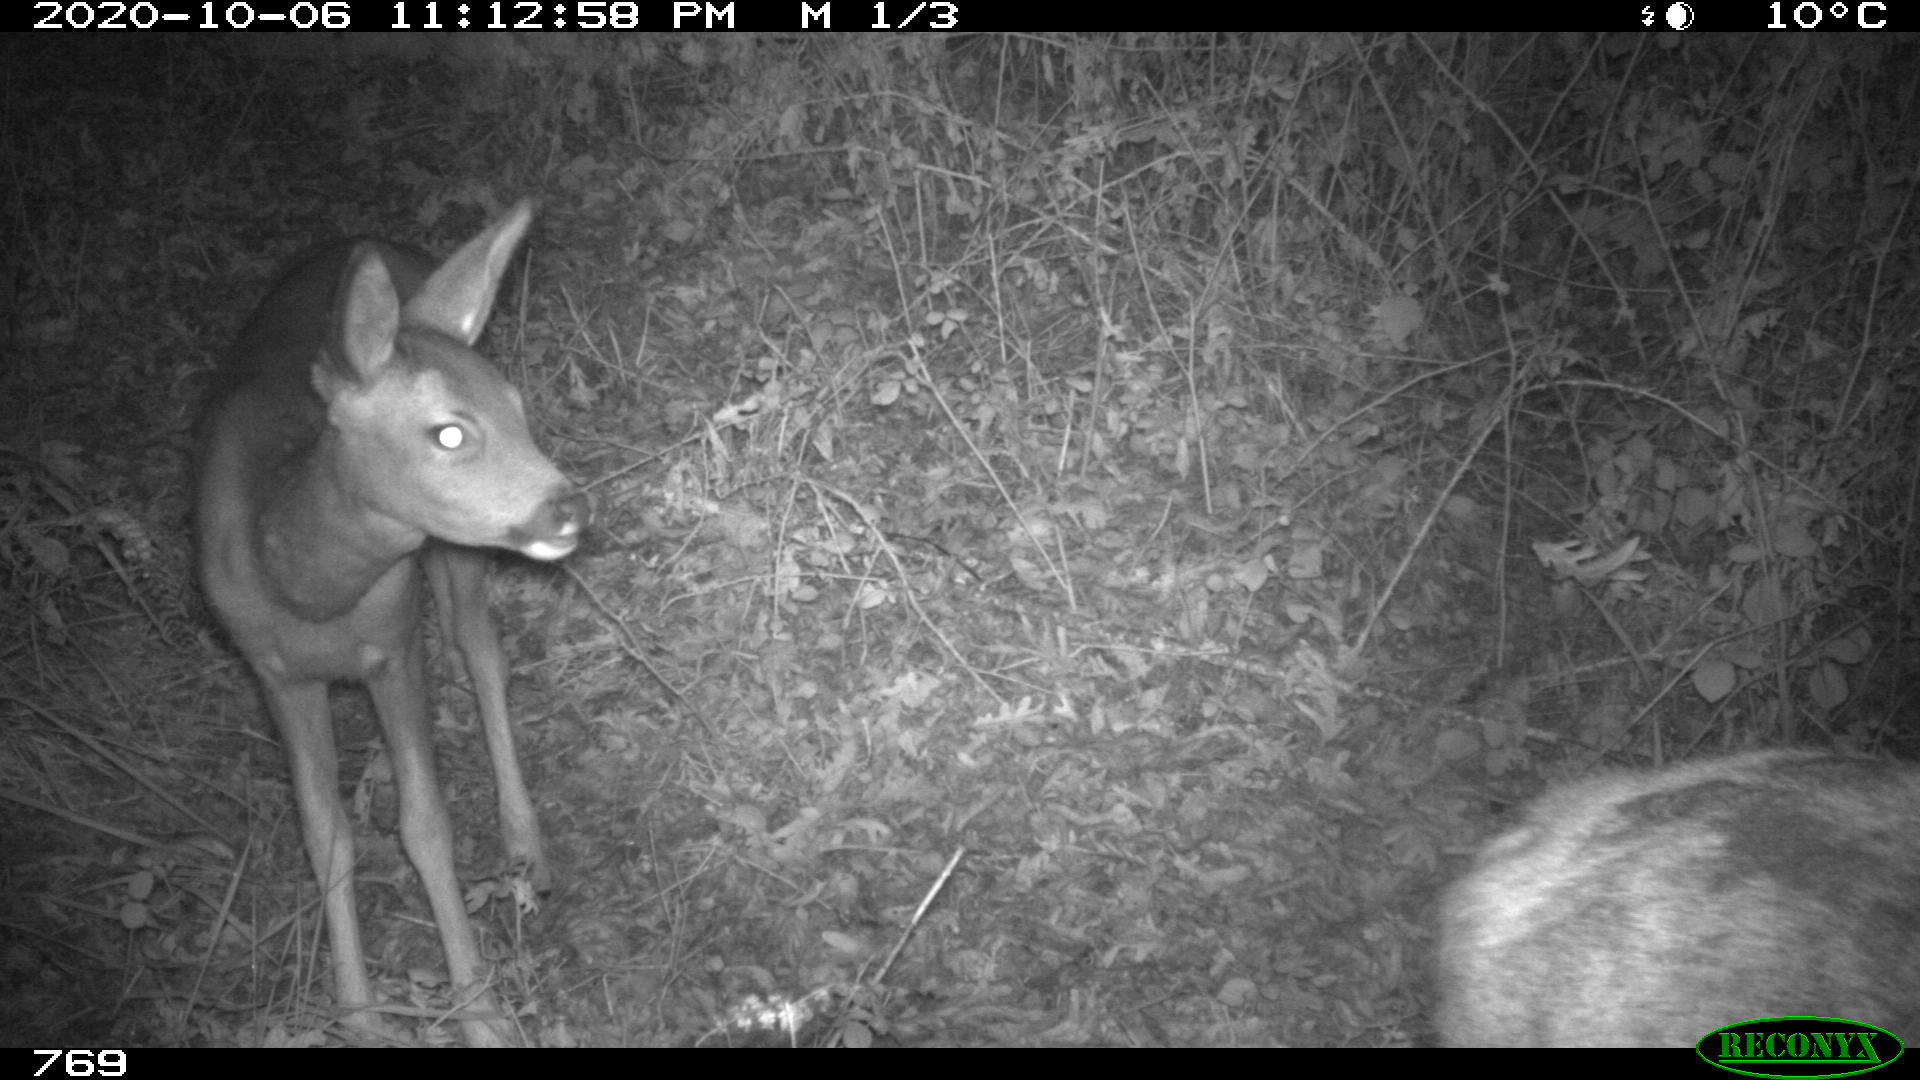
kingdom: Animalia
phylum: Chordata
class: Mammalia
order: Artiodactyla
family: Cervidae
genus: Capreolus
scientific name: Capreolus capreolus
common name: Western roe deer
